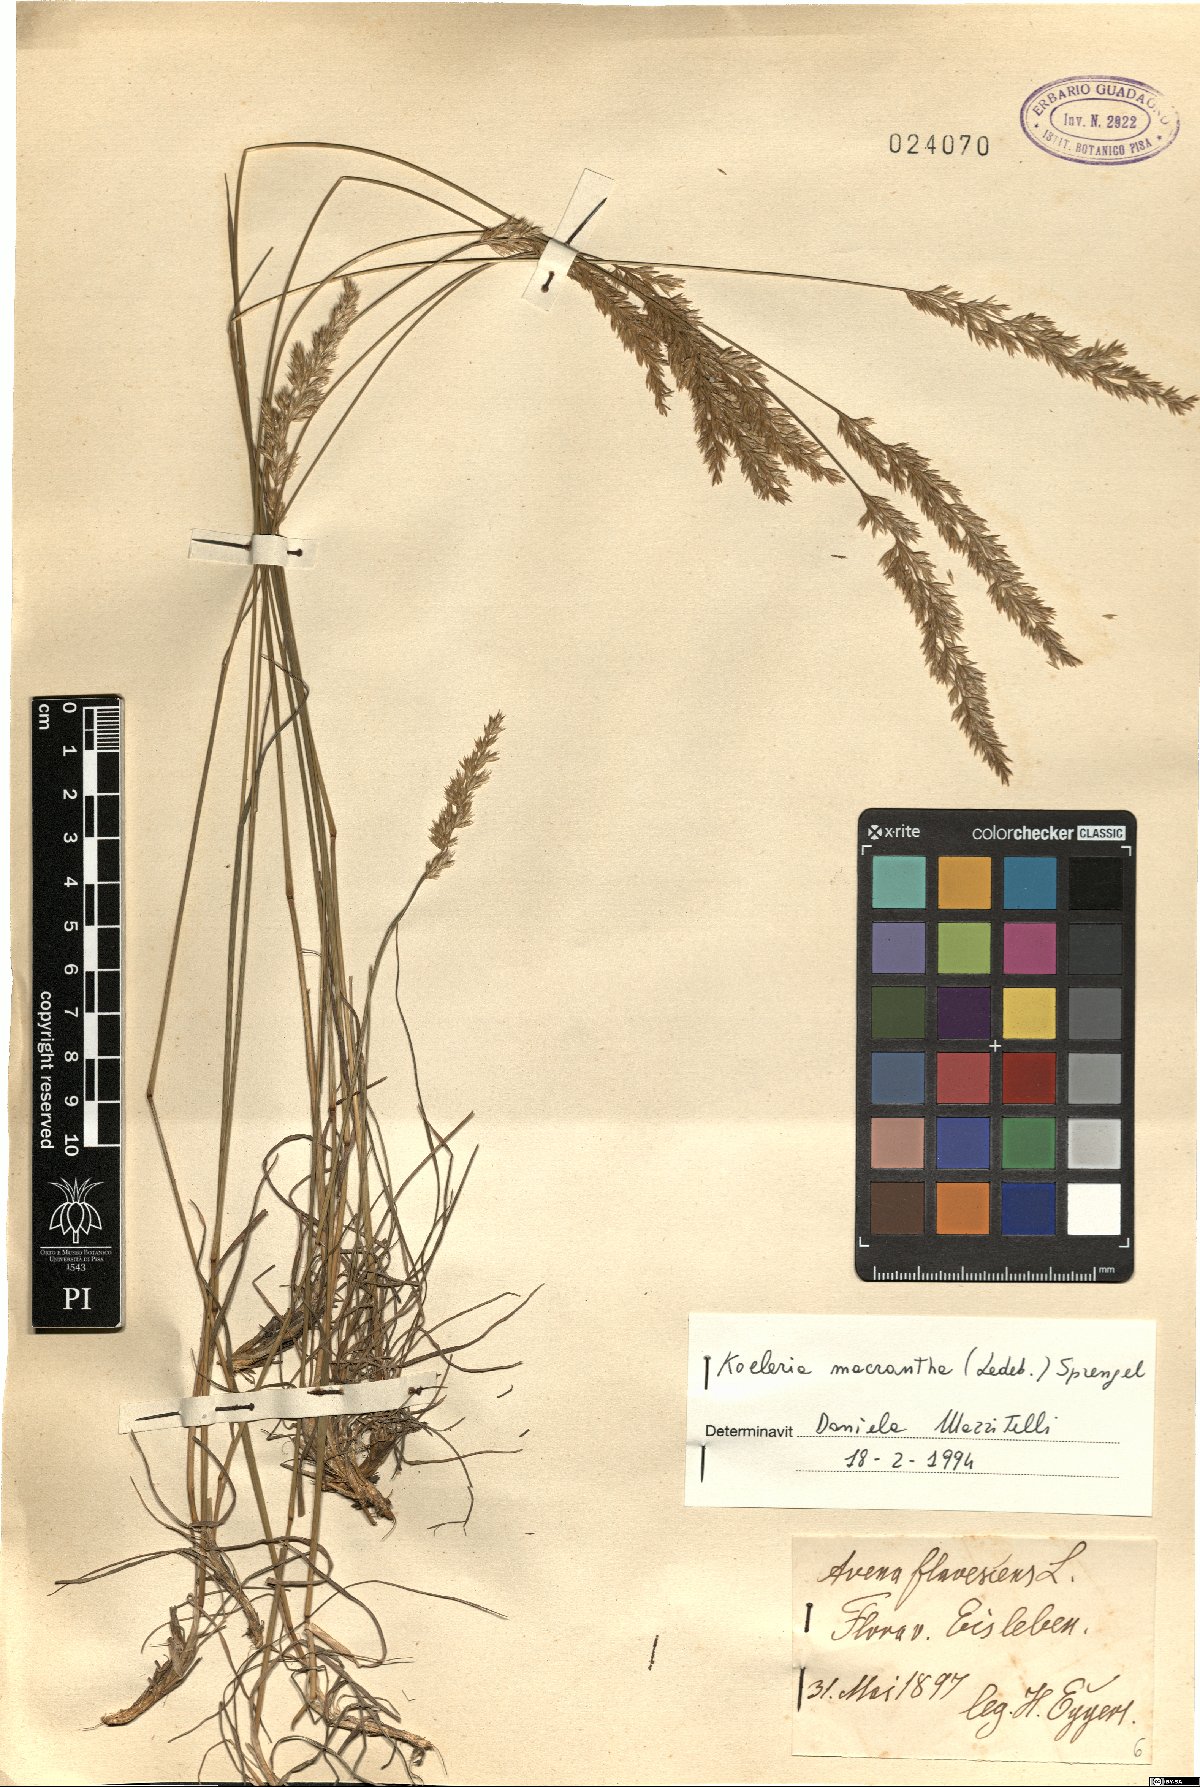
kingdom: Plantae
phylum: Tracheophyta
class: Liliopsida
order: Poales
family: Poaceae
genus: Koeleria
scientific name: Koeleria macrantha
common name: Crested hair-grass
